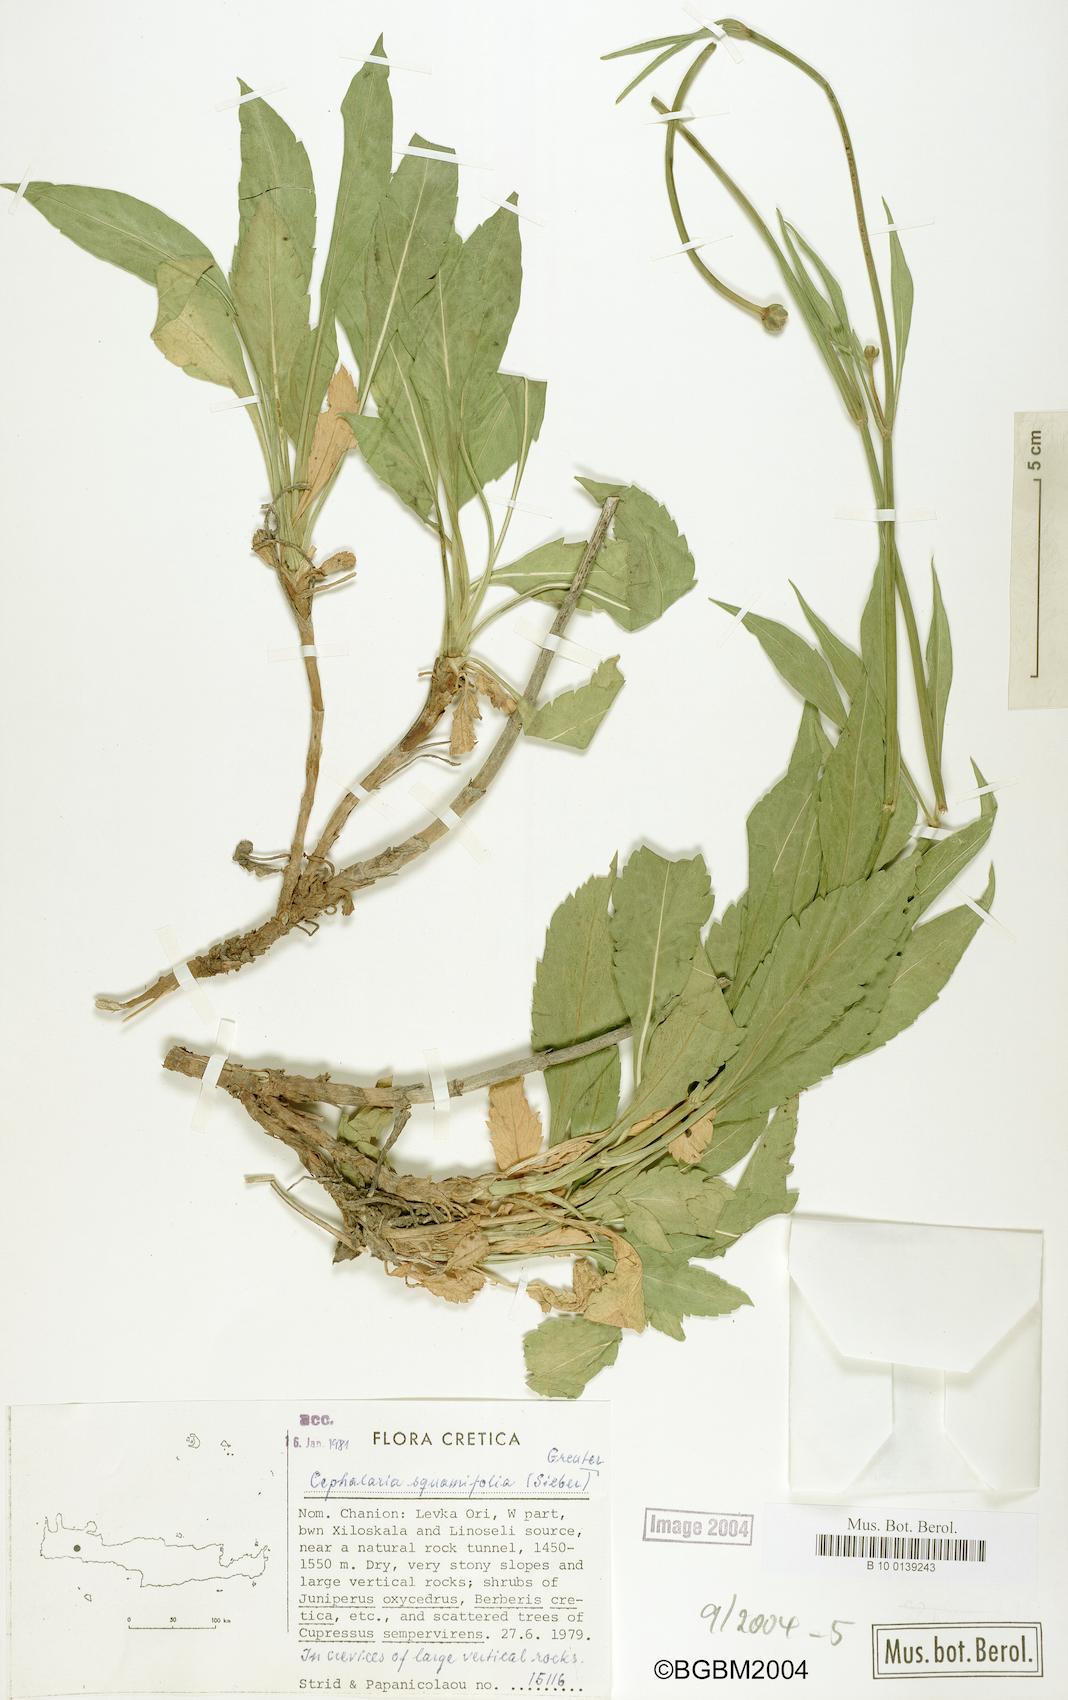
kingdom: Plantae
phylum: Tracheophyta
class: Magnoliopsida
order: Dipsacales
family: Caprifoliaceae
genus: Cephalaria
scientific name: Cephalaria squamiflora
